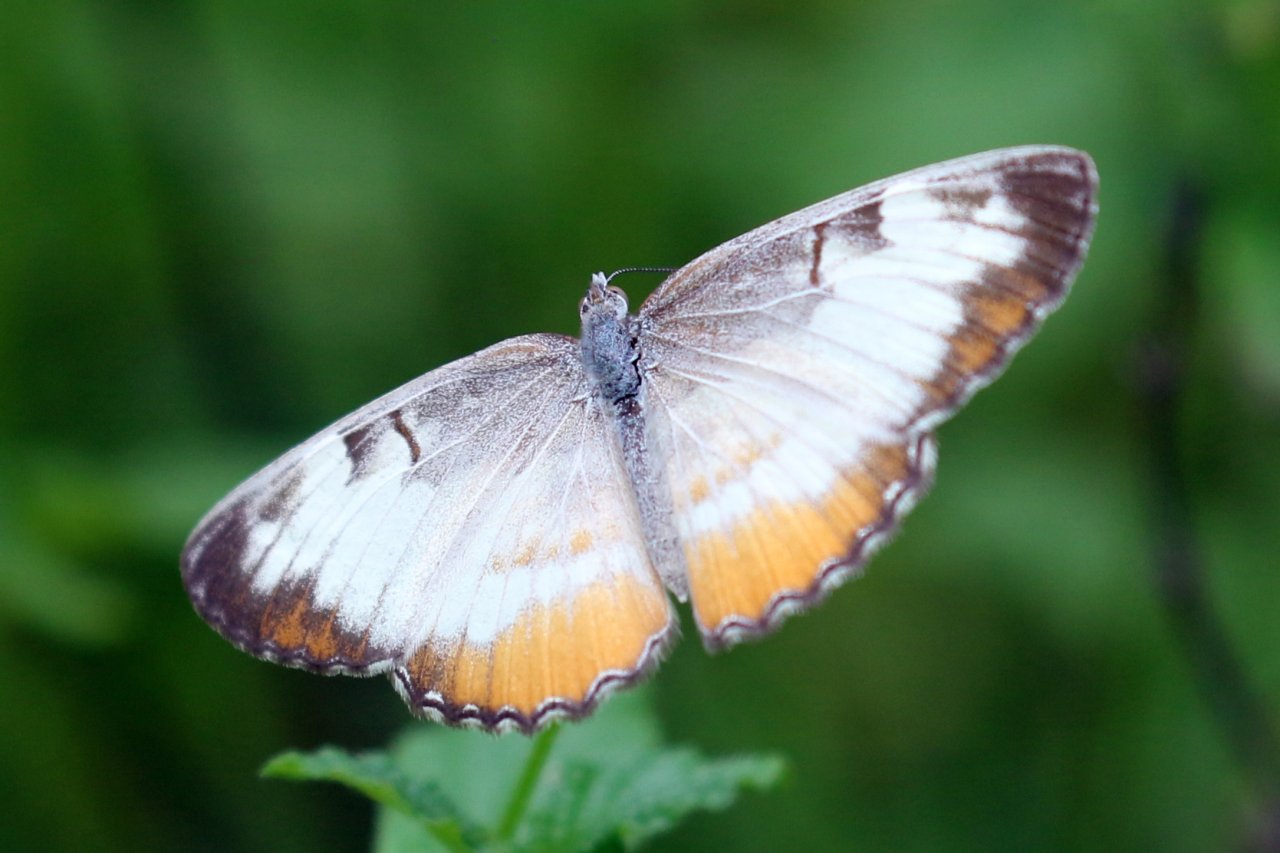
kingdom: Animalia
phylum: Arthropoda
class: Insecta
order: Lepidoptera
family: Nymphalidae
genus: Mestra
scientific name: Mestra amymone
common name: Common Mestra
